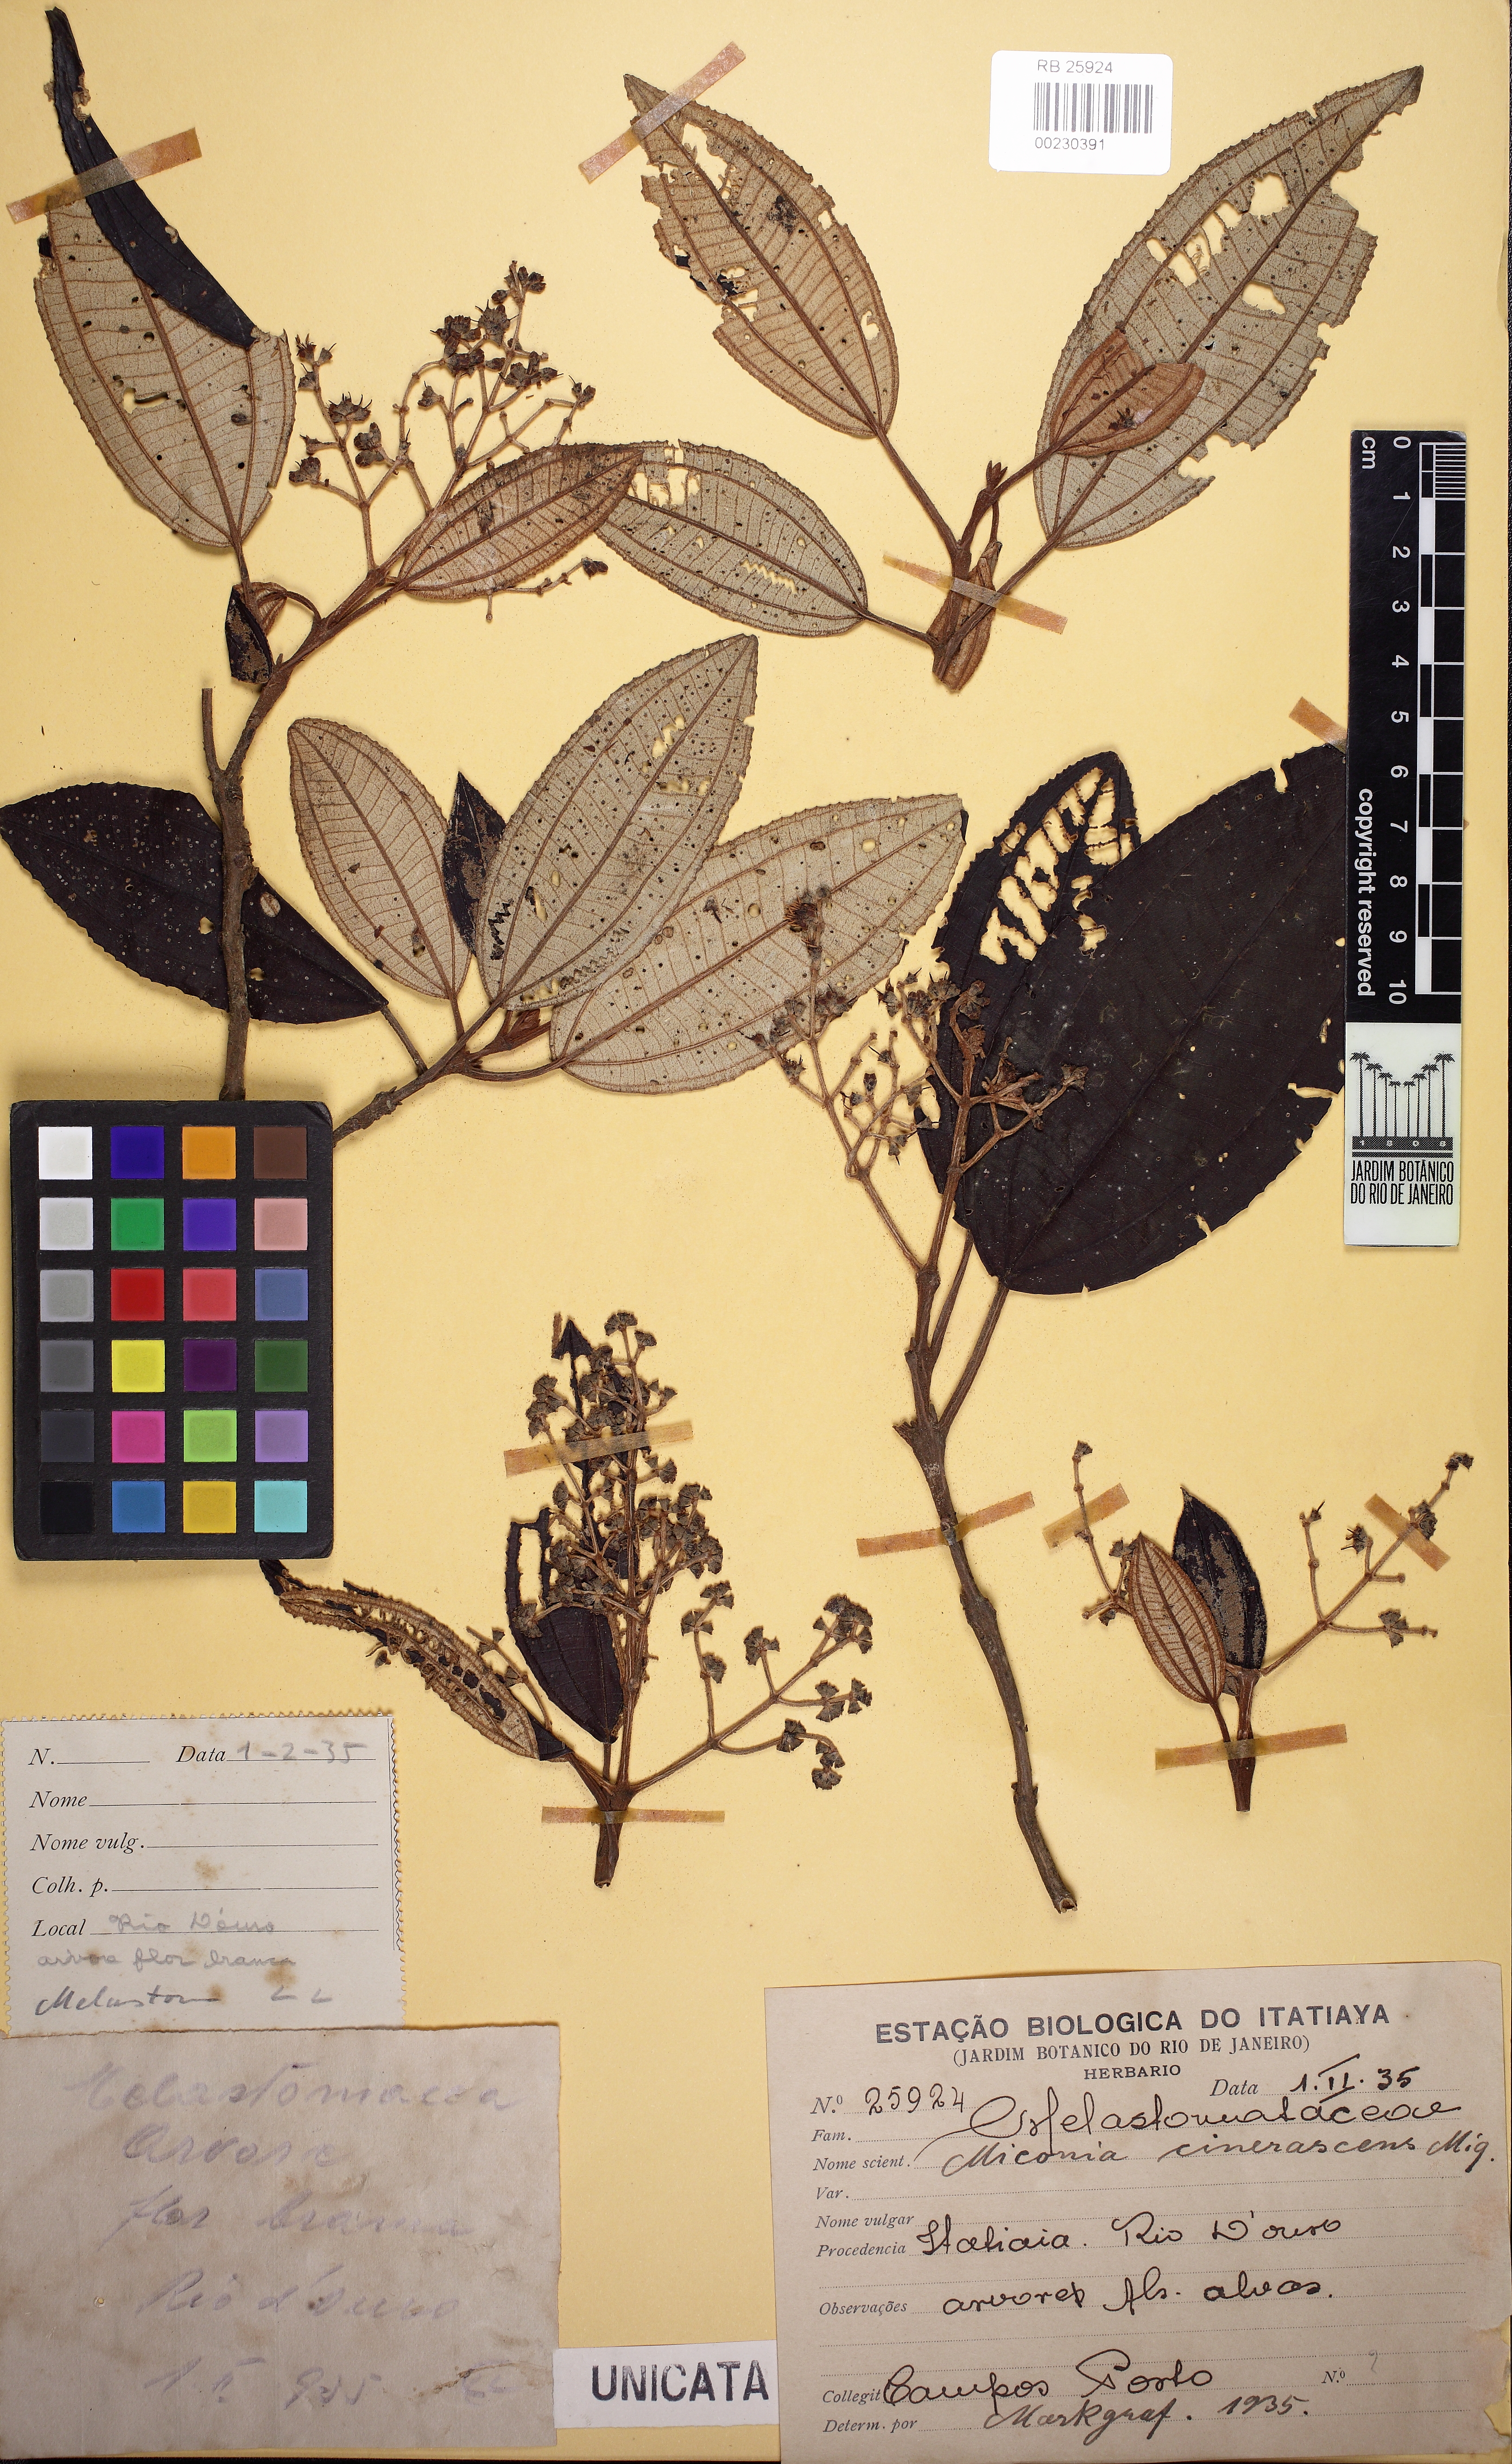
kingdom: Plantae
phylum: Tracheophyta
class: Magnoliopsida
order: Myrtales
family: Melastomataceae
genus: Miconia
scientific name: Miconia cinerascens
